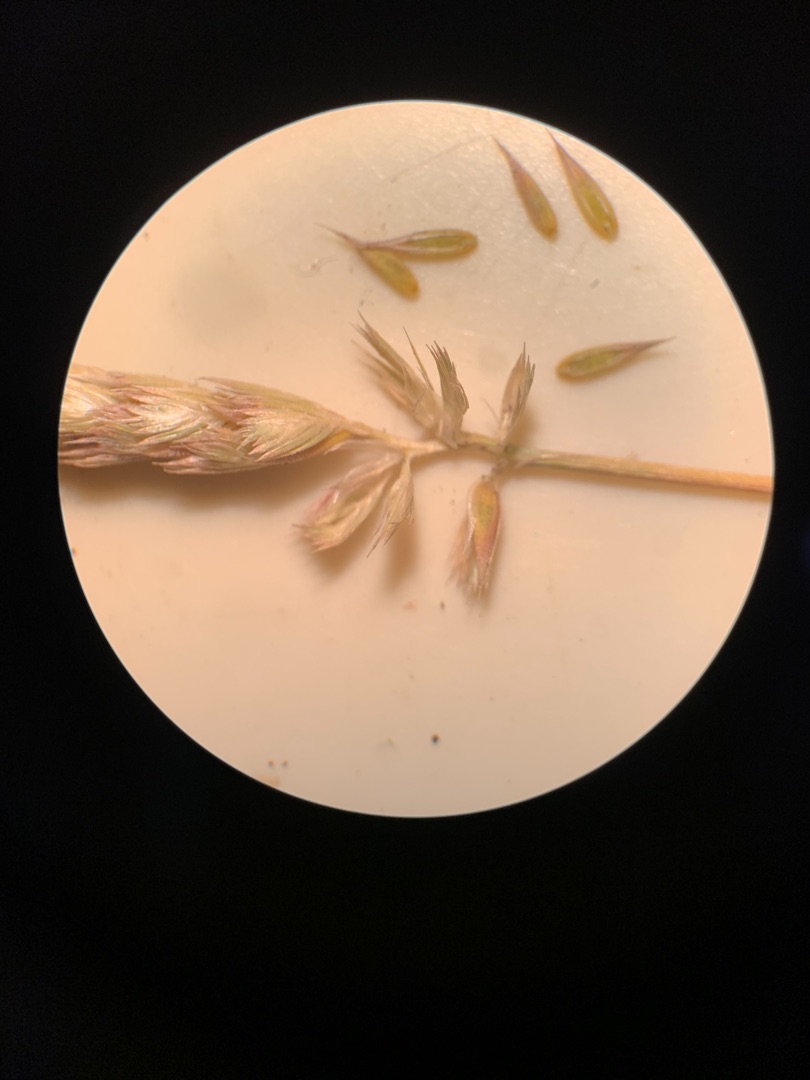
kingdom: Plantae
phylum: Tracheophyta
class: Liliopsida
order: Poales
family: Poaceae
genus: Cynosurus
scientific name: Cynosurus cristatus
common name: Kamgræs
